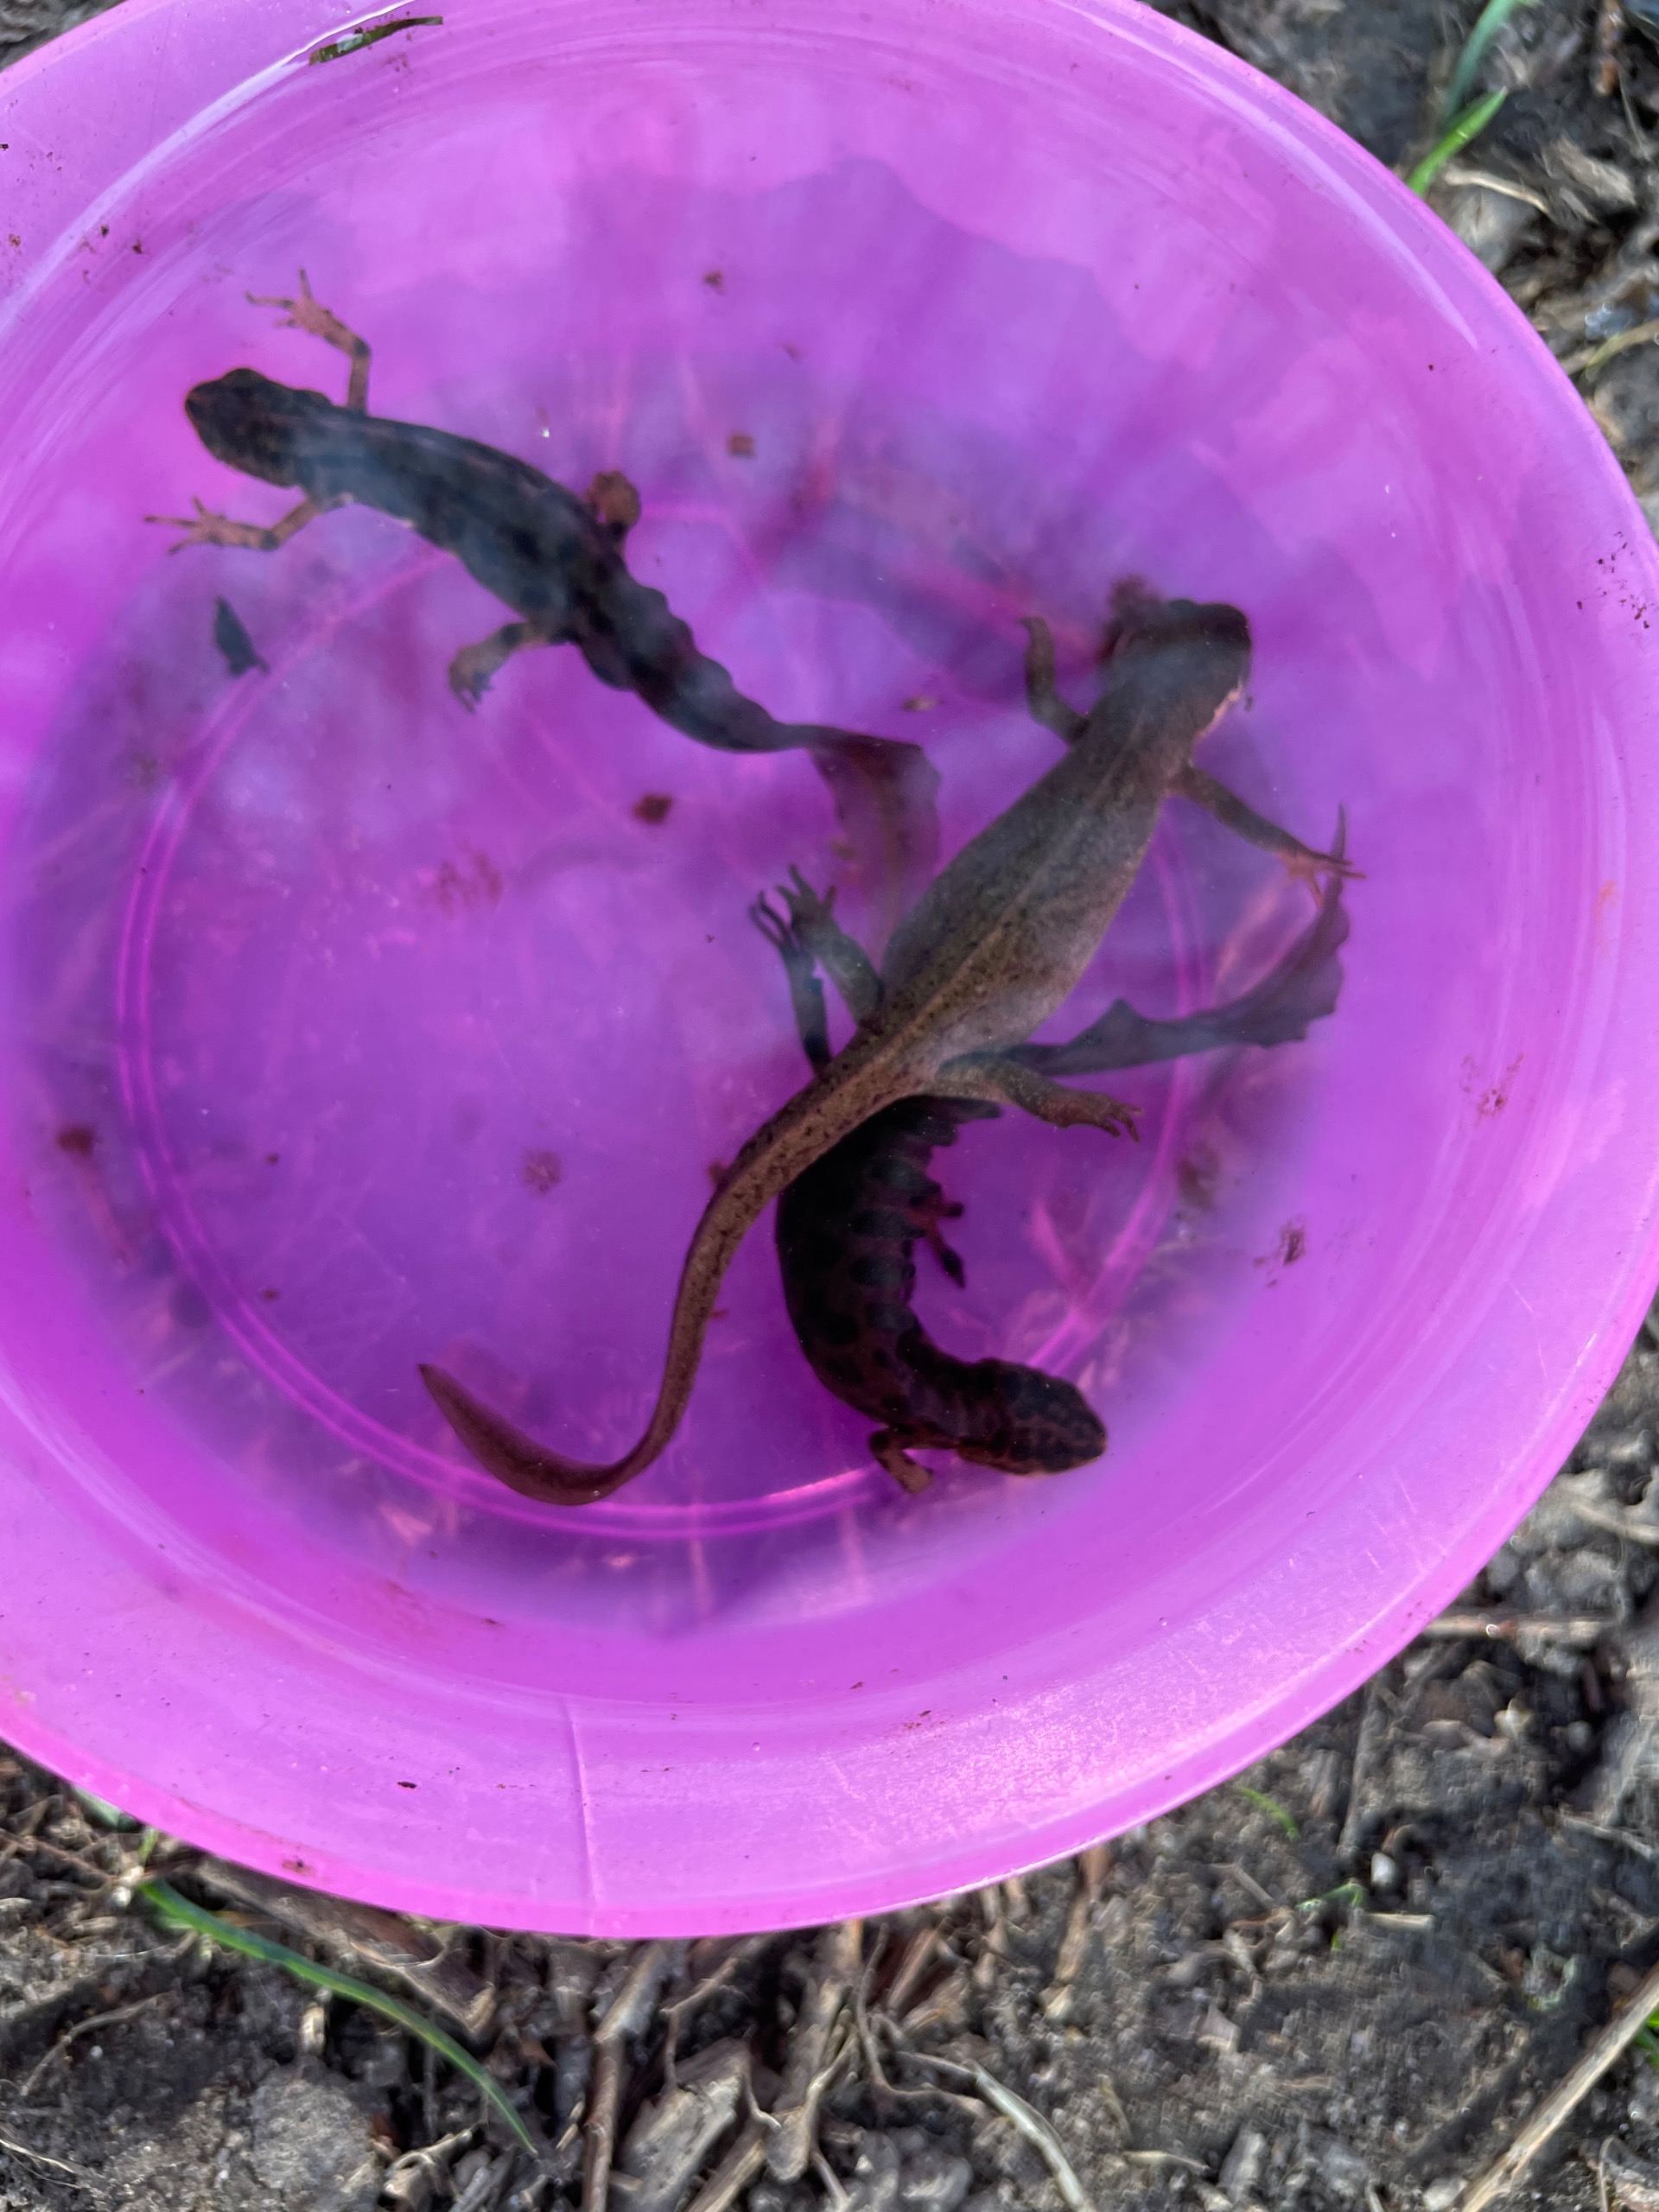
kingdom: Animalia
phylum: Chordata
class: Amphibia
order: Caudata
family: Salamandridae
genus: Lissotriton
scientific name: Lissotriton vulgaris
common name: Lille vandsalamander
